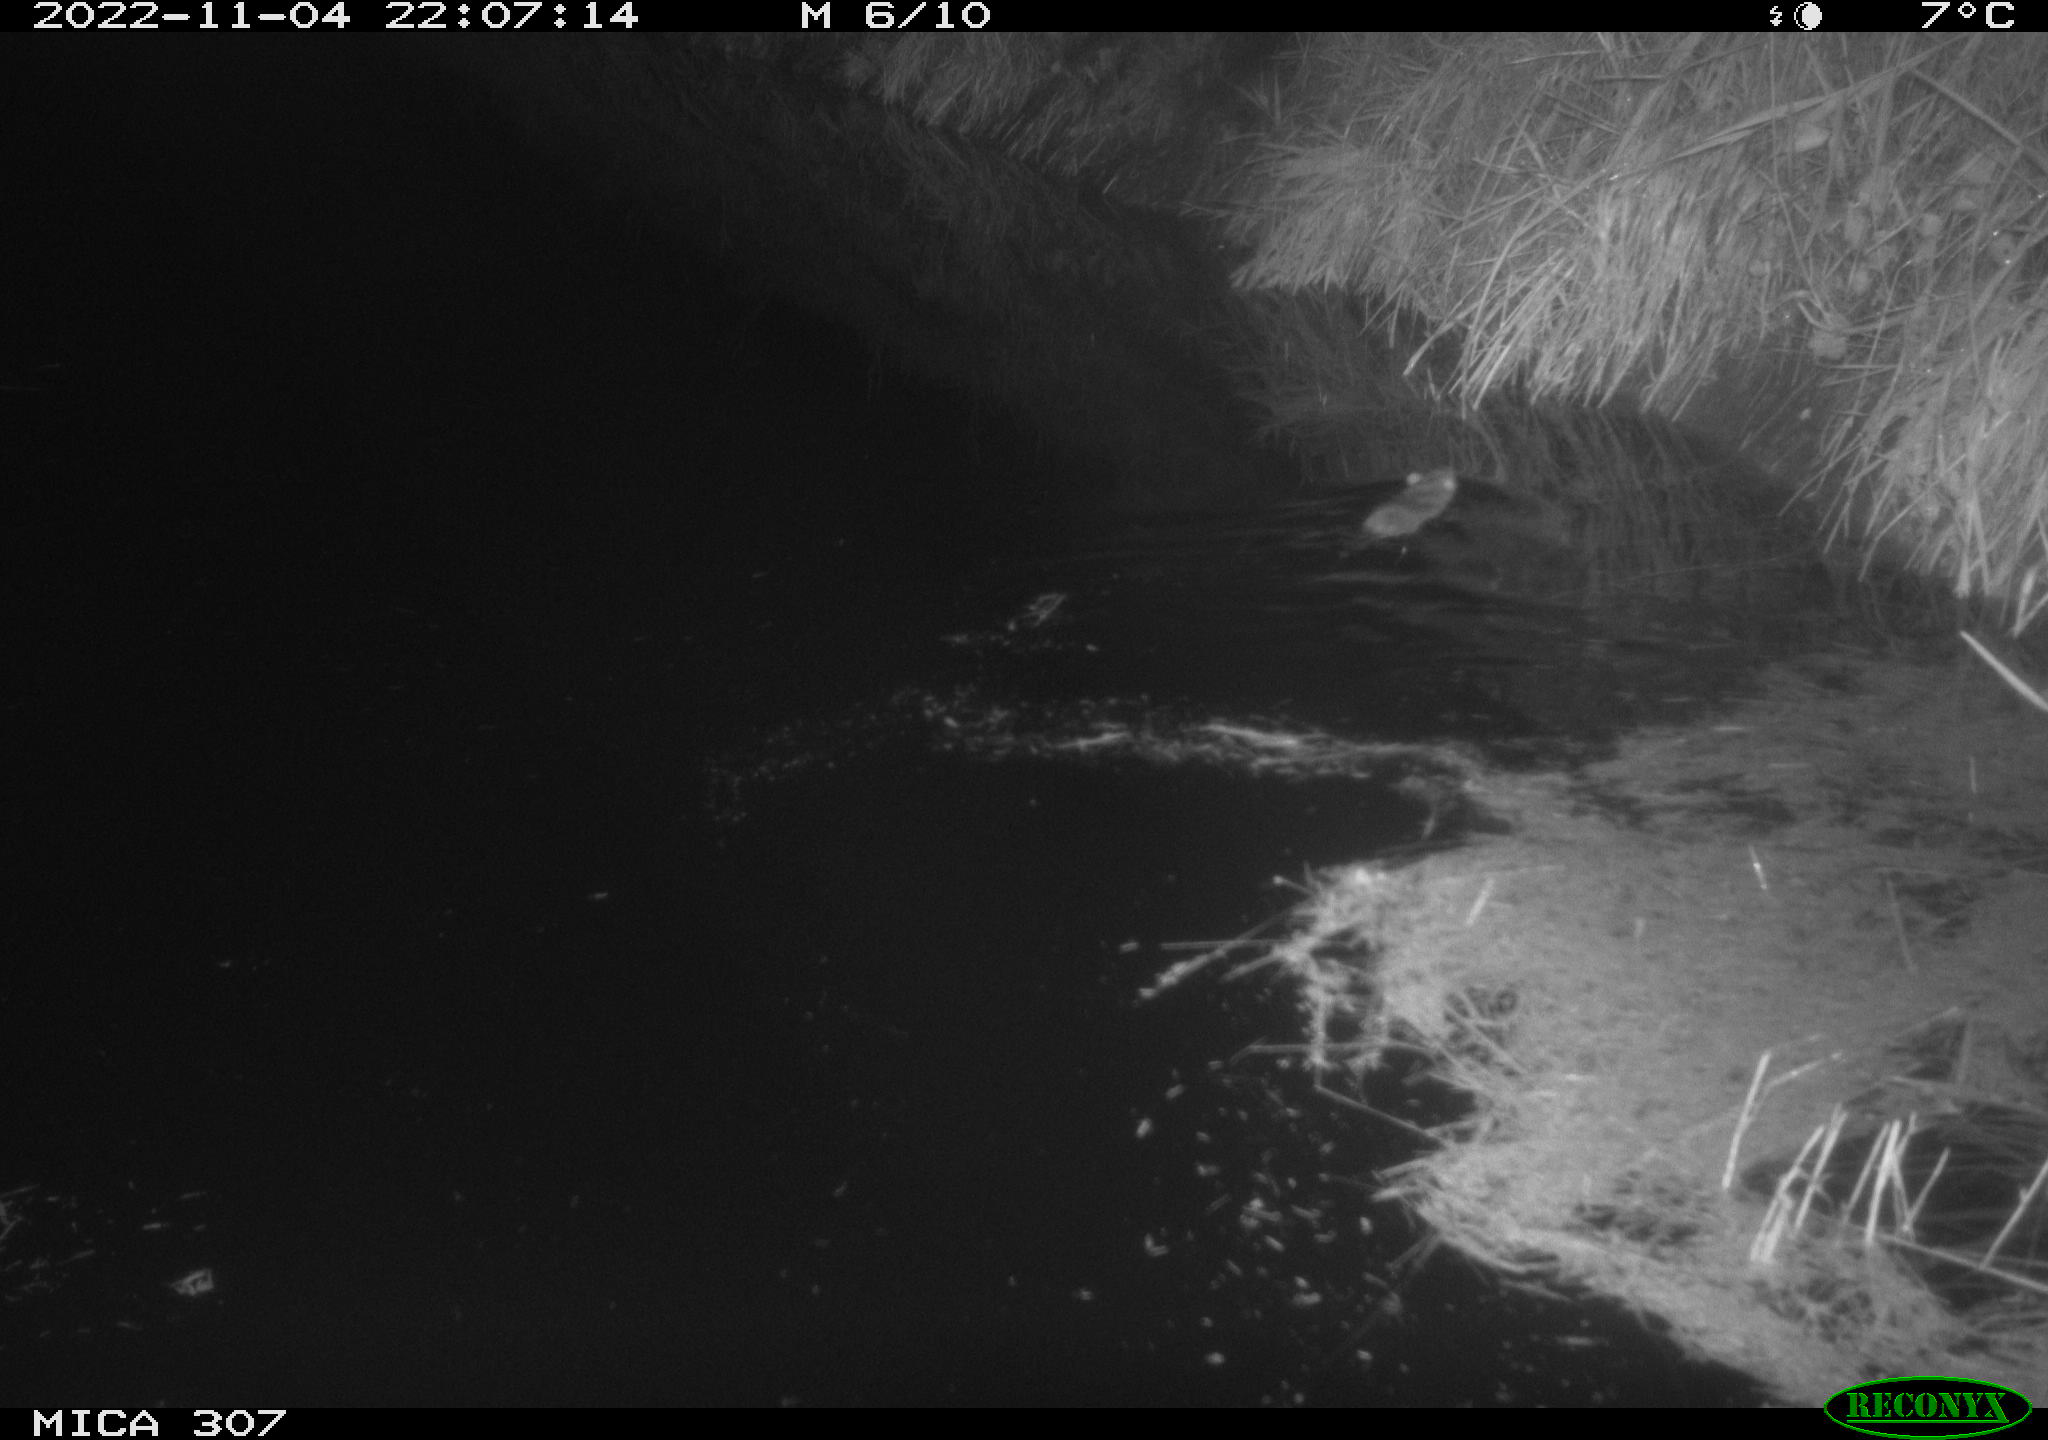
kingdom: Animalia
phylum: Chordata
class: Mammalia
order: Rodentia
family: Muridae
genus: Rattus
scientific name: Rattus norvegicus
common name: Brown rat
